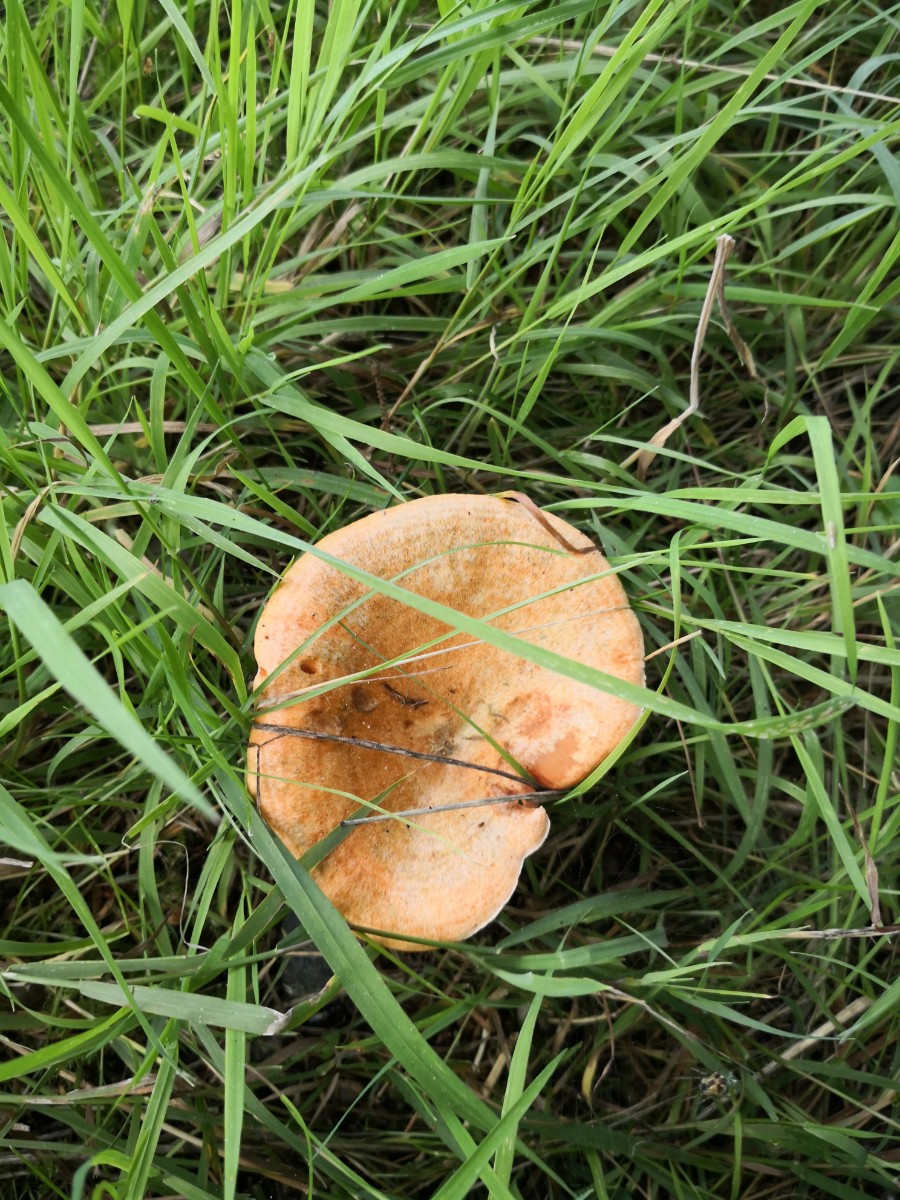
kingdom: Fungi
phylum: Basidiomycota
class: Agaricomycetes
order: Russulales
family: Russulaceae
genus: Lactarius
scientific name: Lactarius deterrimus
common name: gran-mælkehat
